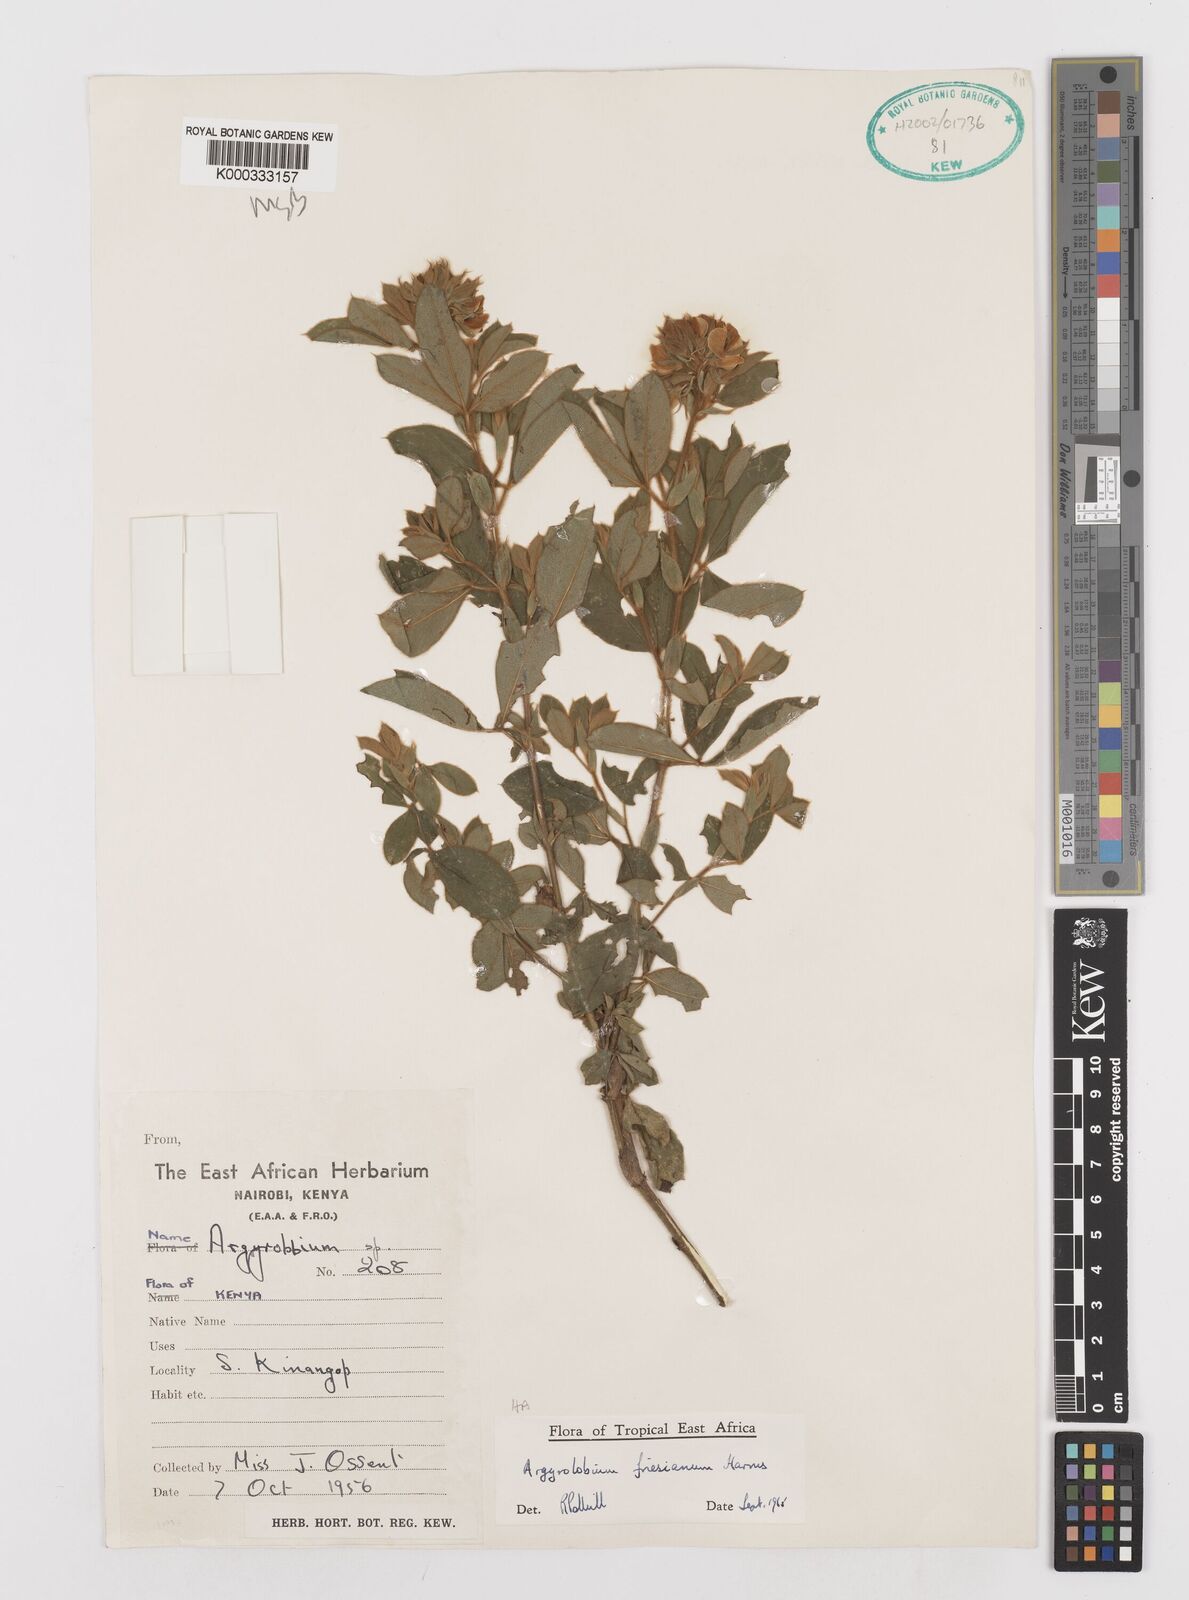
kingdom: Plantae
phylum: Tracheophyta
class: Magnoliopsida
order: Fabales
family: Fabaceae
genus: Argyrolobium
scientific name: Argyrolobium friesianum
